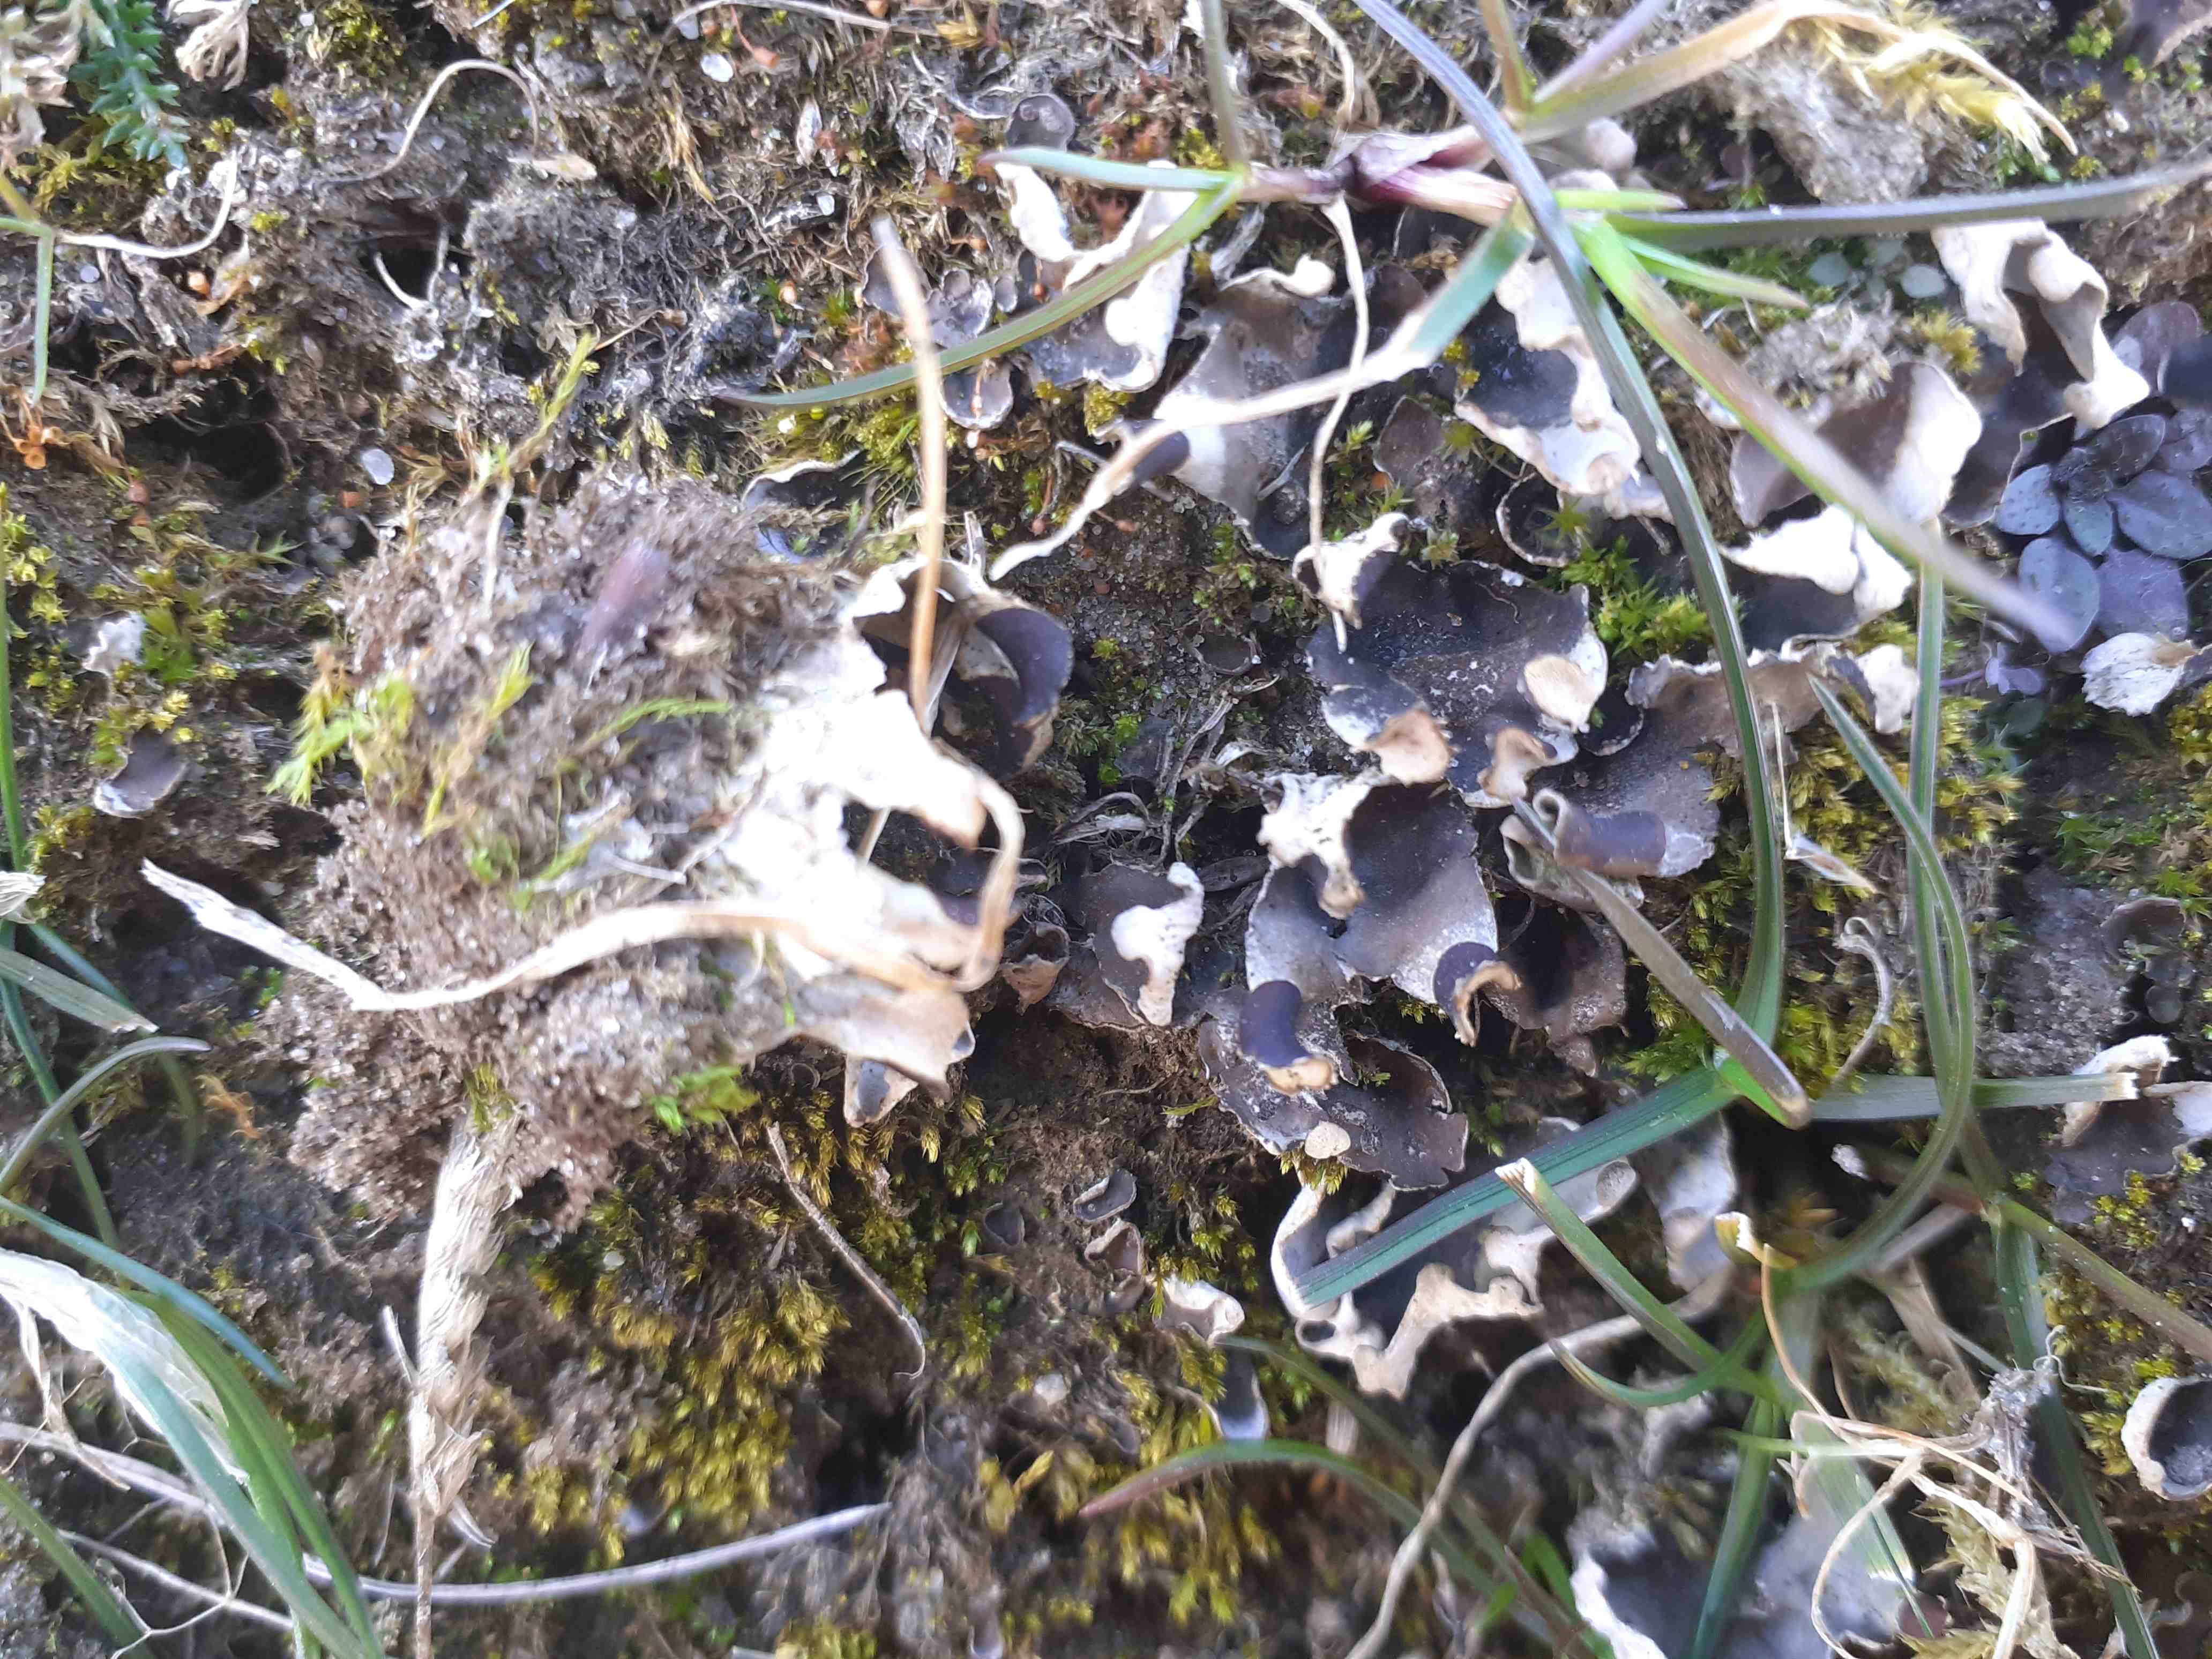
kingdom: Fungi
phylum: Ascomycota
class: Lecanoromycetes
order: Peltigerales
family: Peltigeraceae
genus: Peltigera
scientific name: Peltigera didactyla
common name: liden skjoldlav
